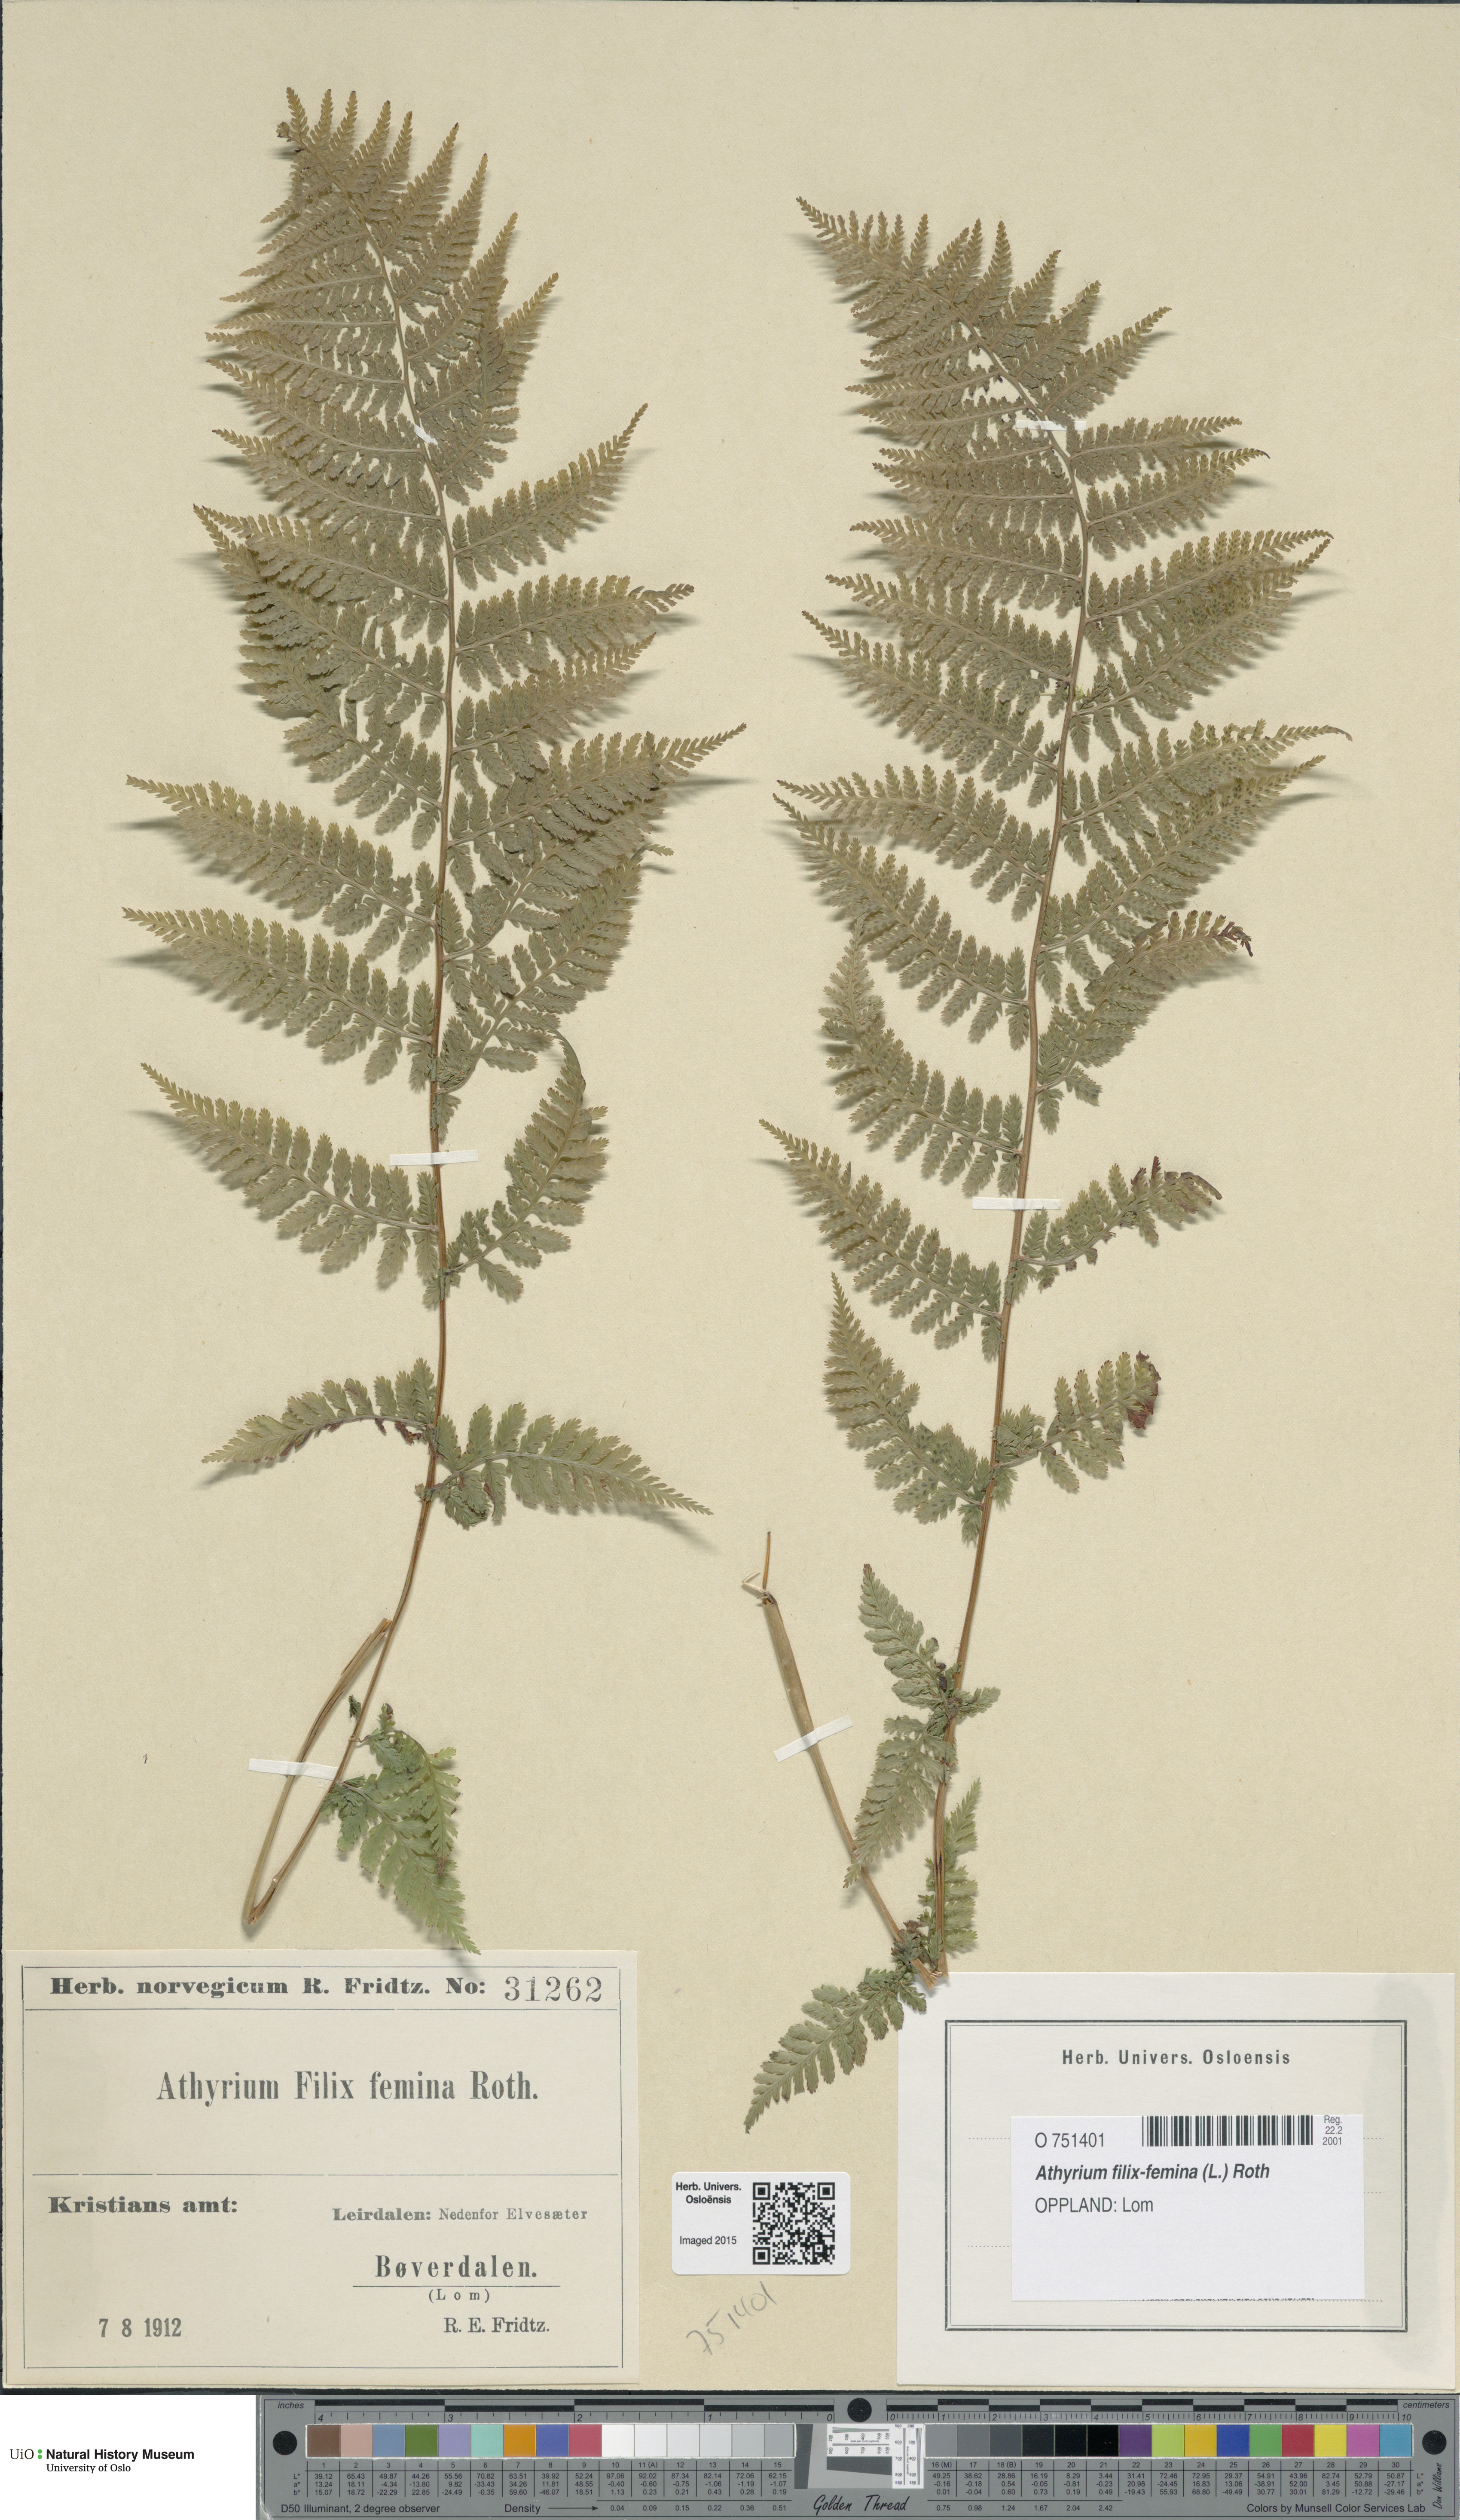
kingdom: Plantae
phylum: Tracheophyta
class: Polypodiopsida
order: Polypodiales
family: Athyriaceae
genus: Athyrium
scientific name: Athyrium filix-femina
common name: Lady fern
